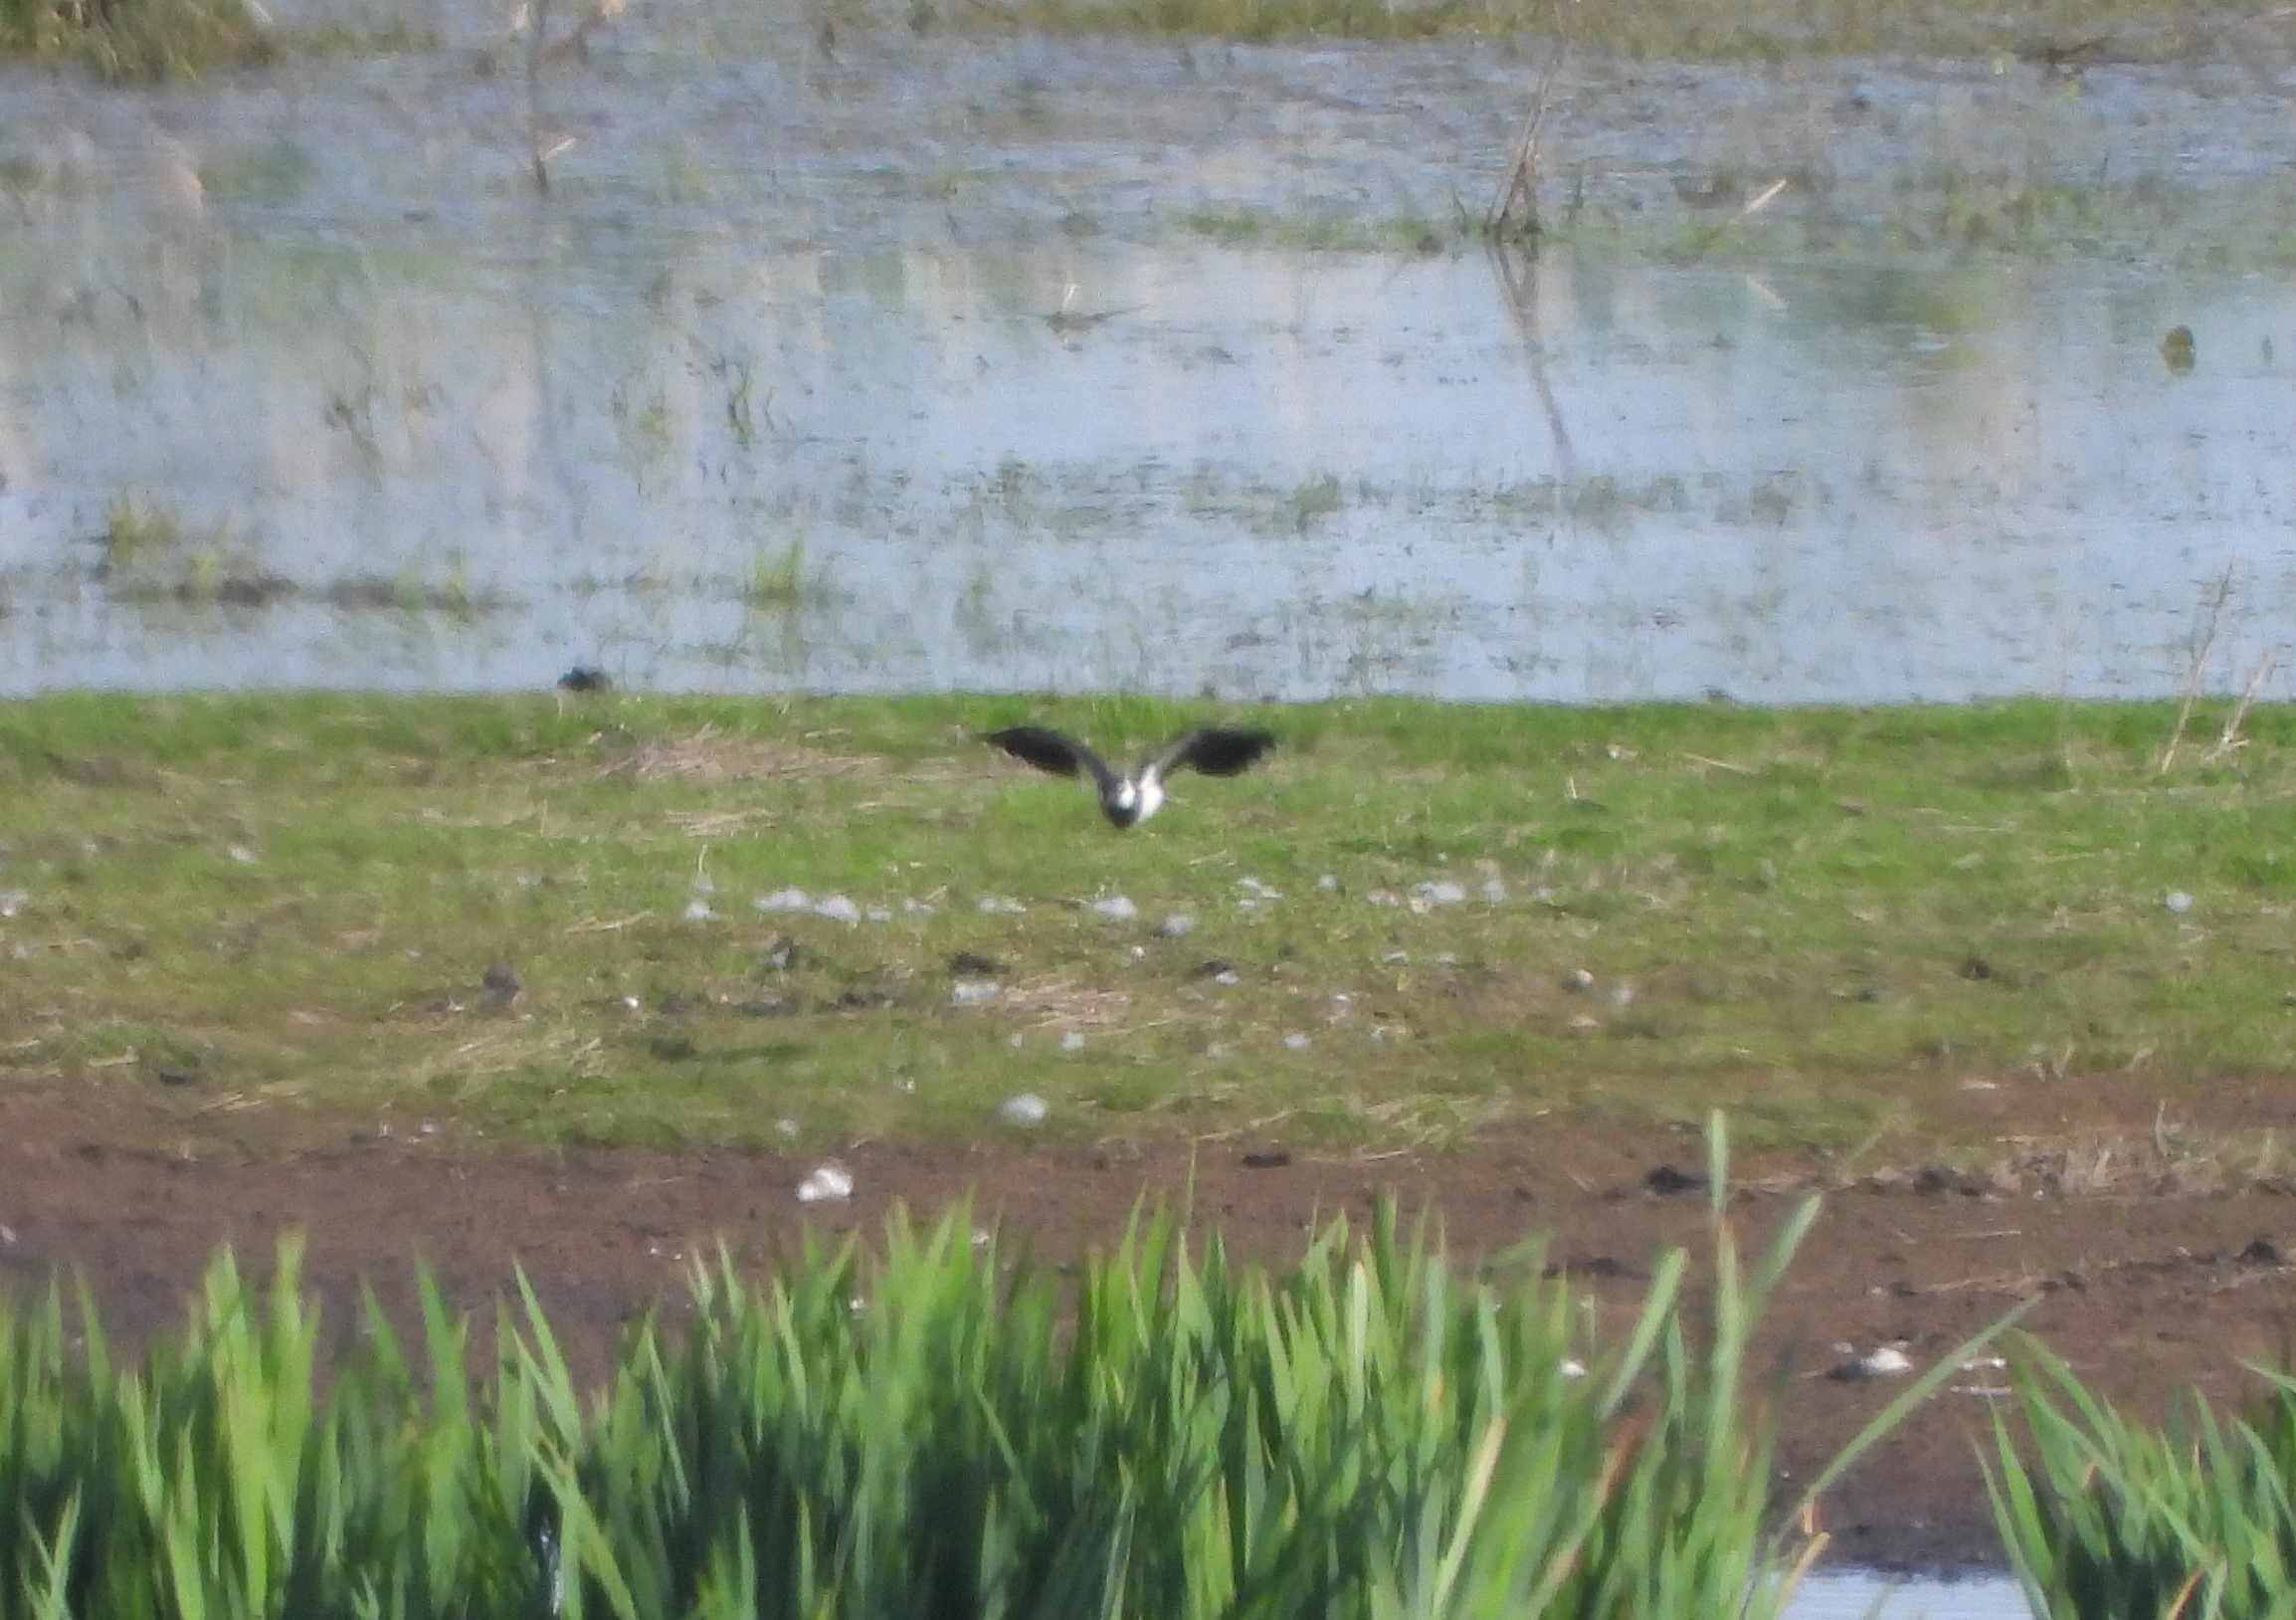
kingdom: Animalia
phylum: Chordata
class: Aves
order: Charadriiformes
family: Charadriidae
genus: Vanellus
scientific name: Vanellus vanellus
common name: Vibe
